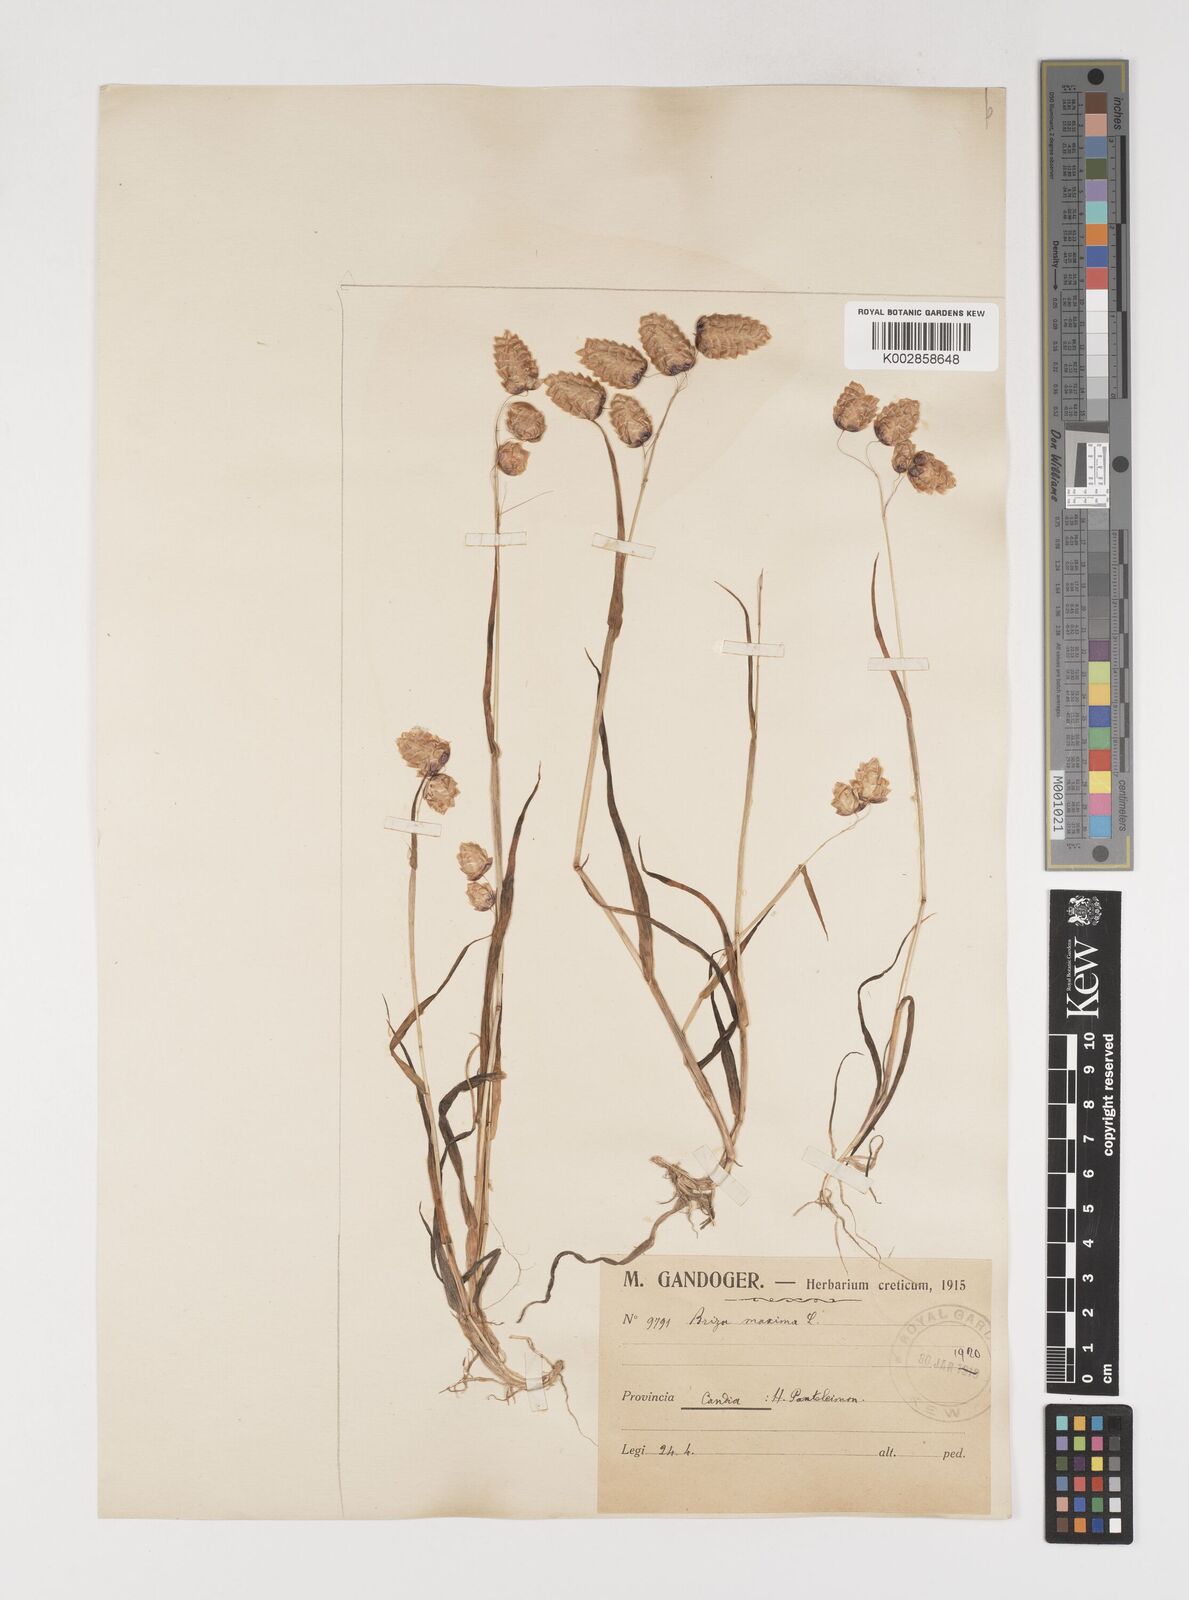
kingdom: Plantae
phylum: Tracheophyta
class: Liliopsida
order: Poales
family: Poaceae
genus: Briza
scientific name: Briza maxima
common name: Big quakinggrass
